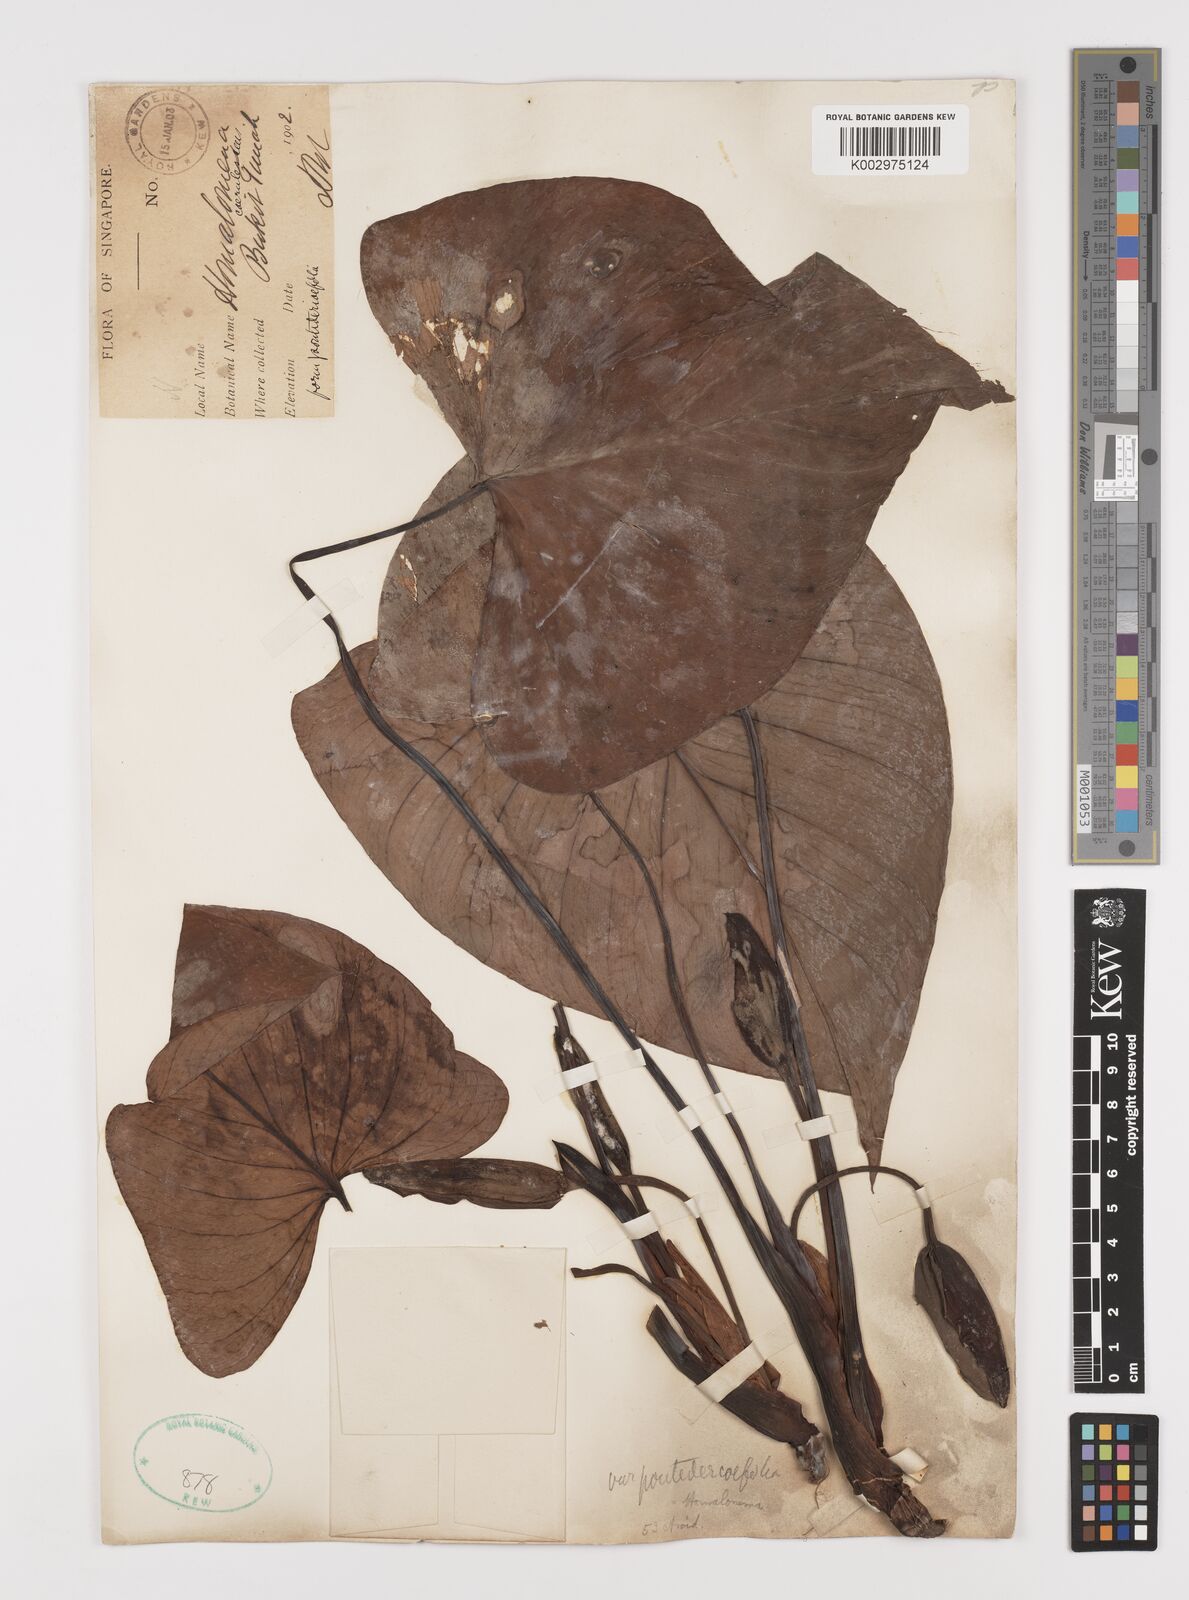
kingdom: Plantae
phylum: Tracheophyta
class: Liliopsida
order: Alismatales
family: Araceae
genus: Homalomena
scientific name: Homalomena pendula
